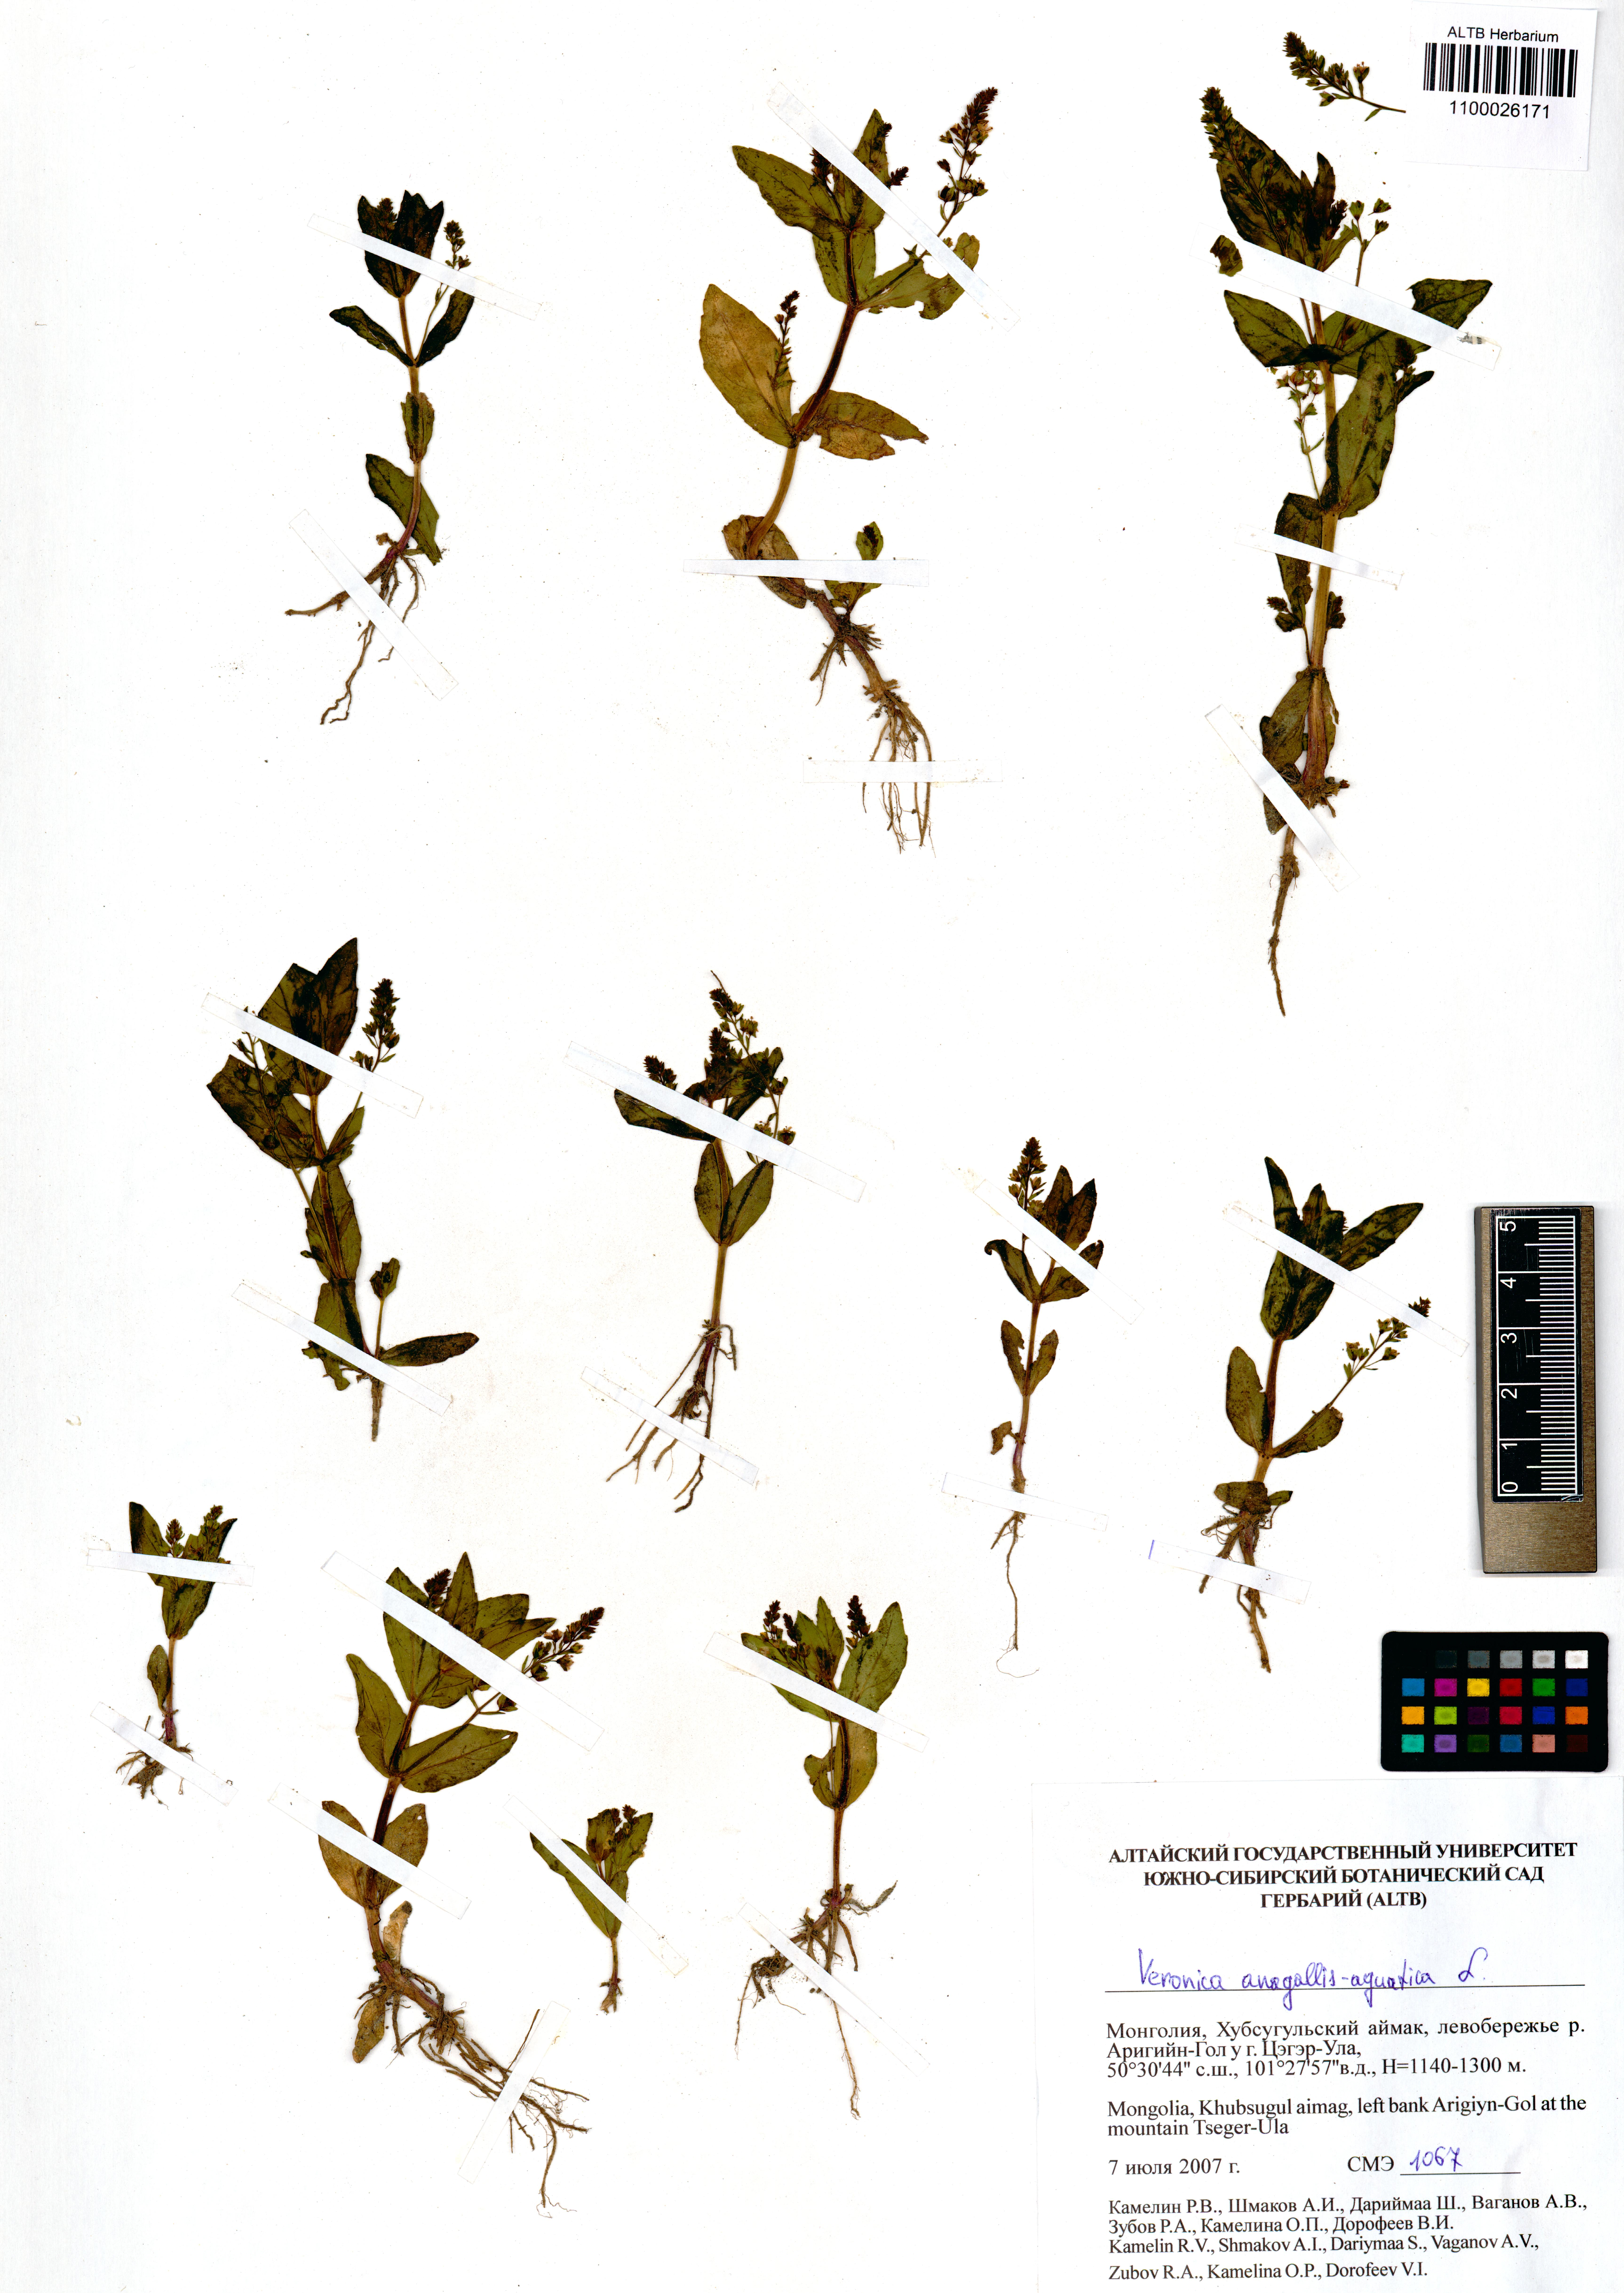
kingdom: Plantae
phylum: Tracheophyta
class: Magnoliopsida
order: Lamiales
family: Plantaginaceae
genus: Veronica
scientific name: Veronica anagallis-aquatica
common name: Water speedwell
